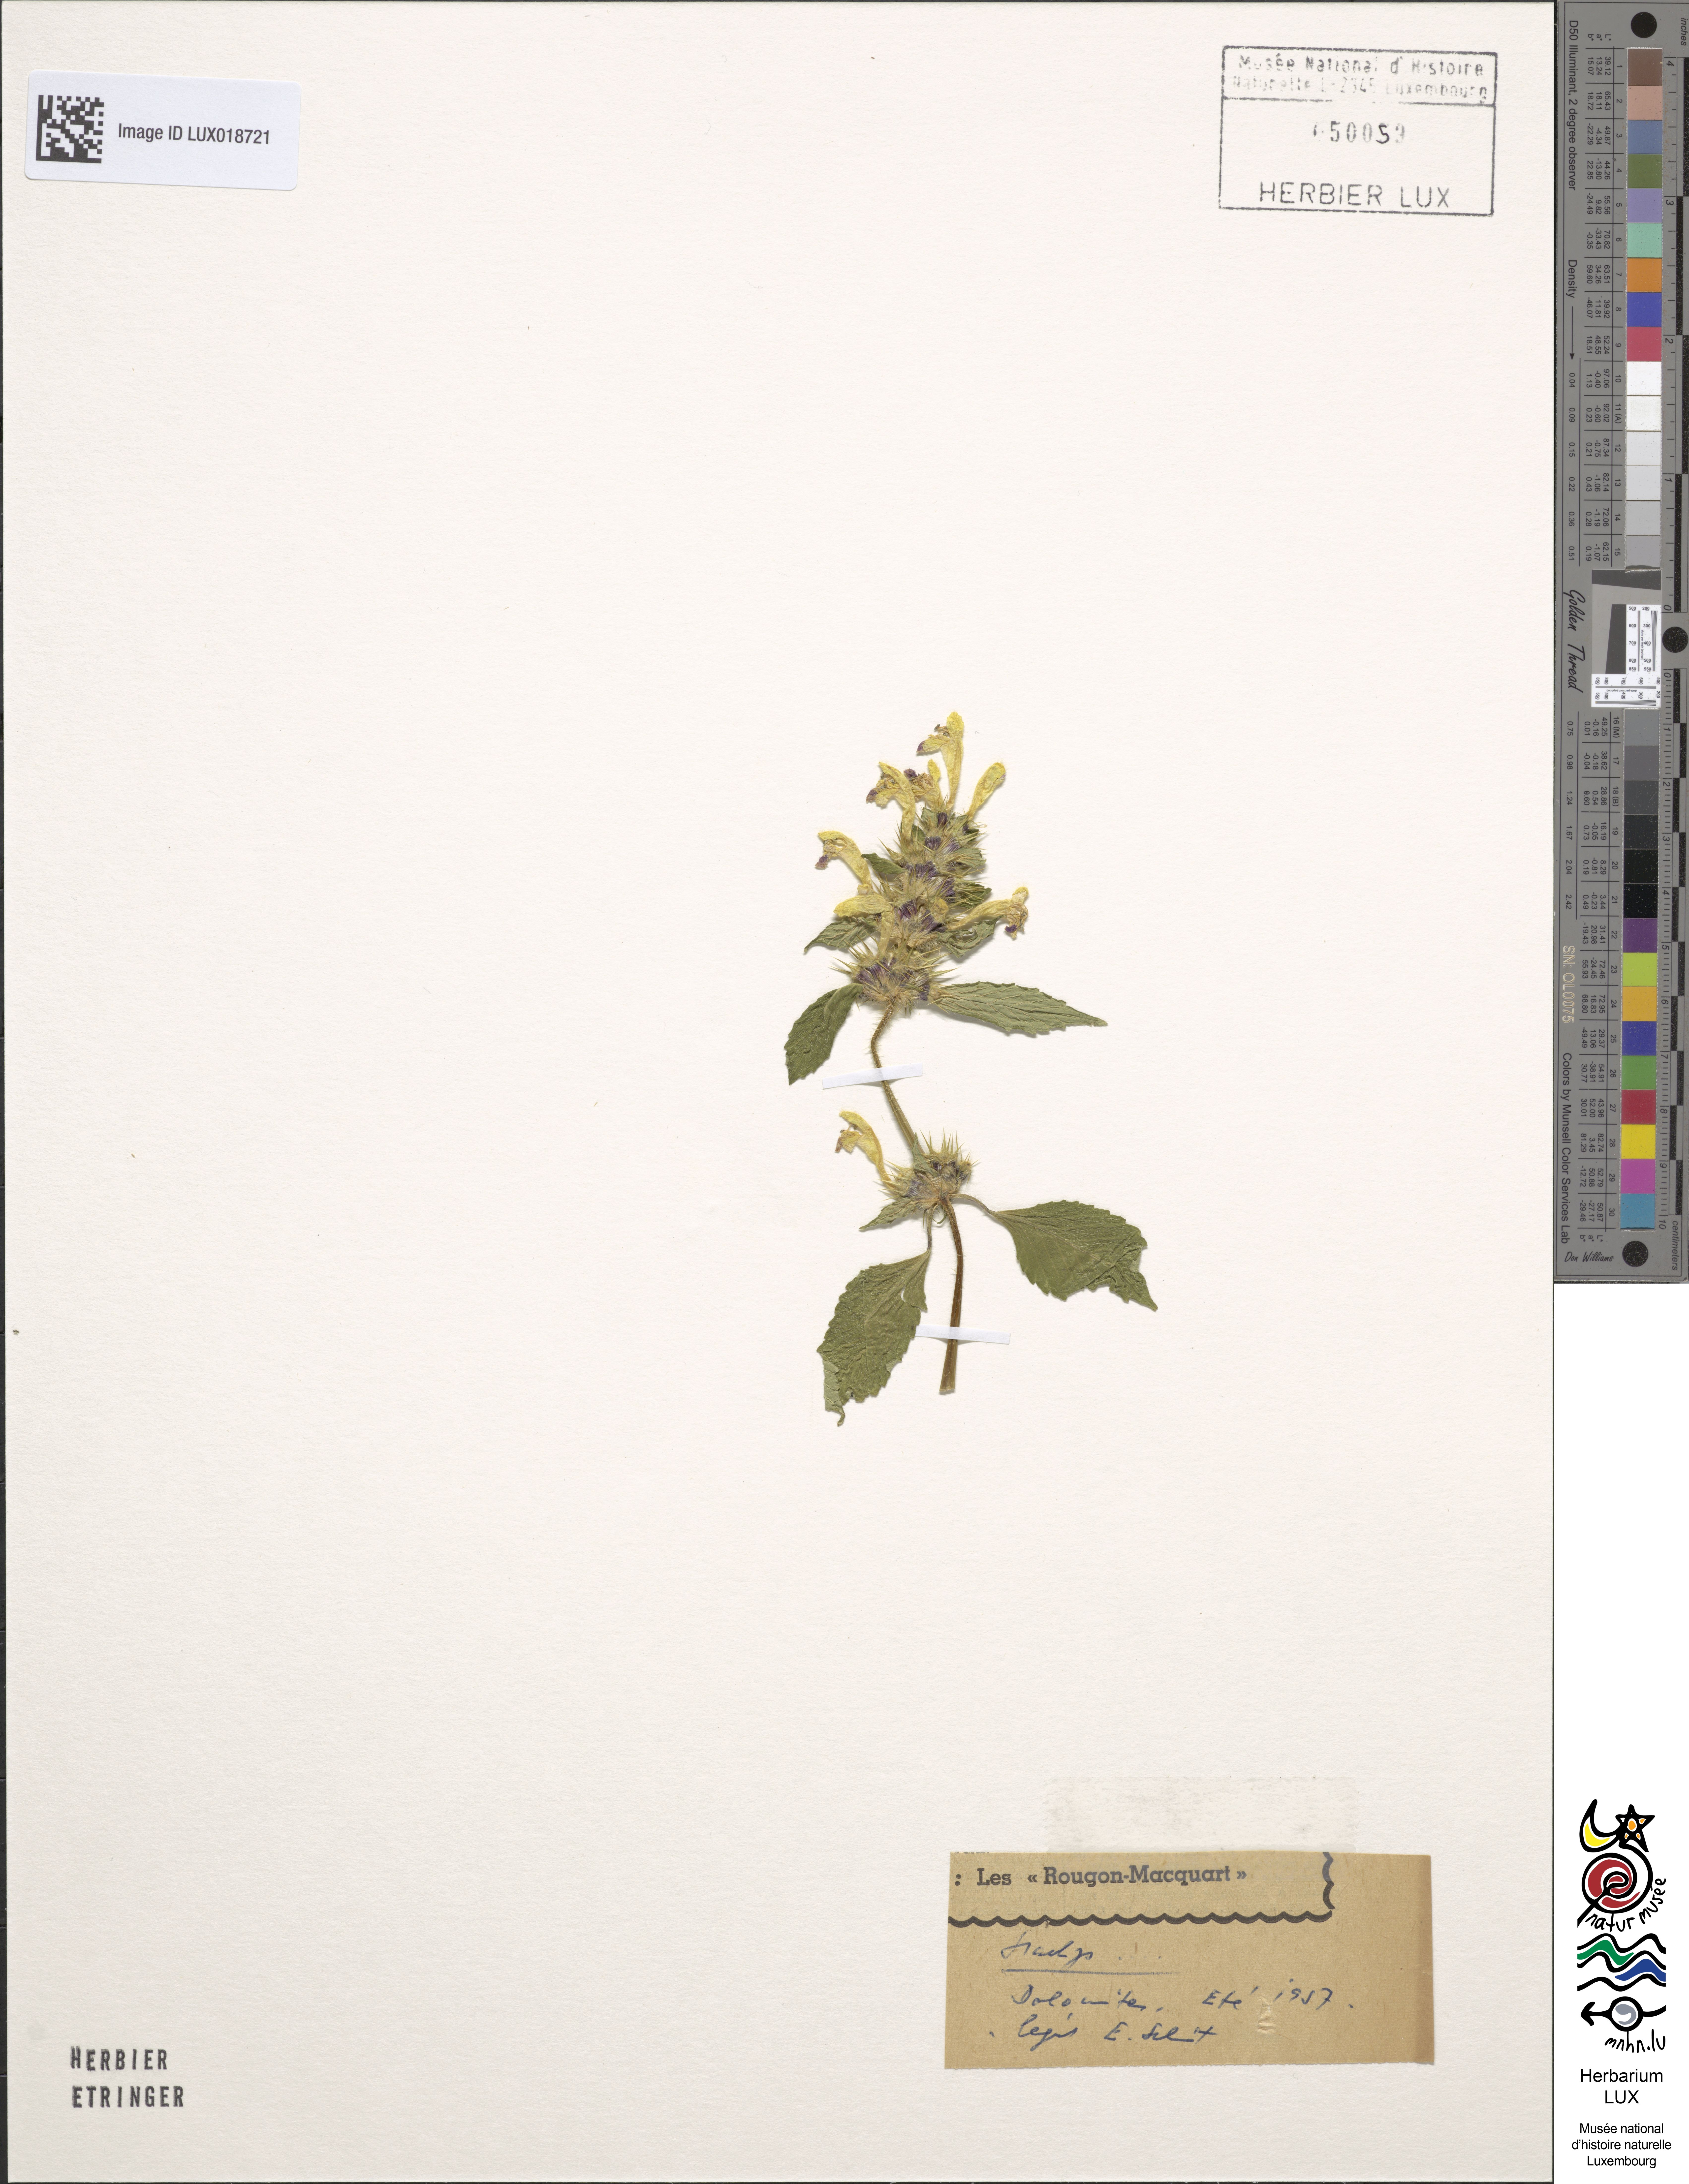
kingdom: Plantae
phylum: Tracheophyta
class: Magnoliopsida
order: Lamiales
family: Lamiaceae
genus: Stachys
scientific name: Stachys
